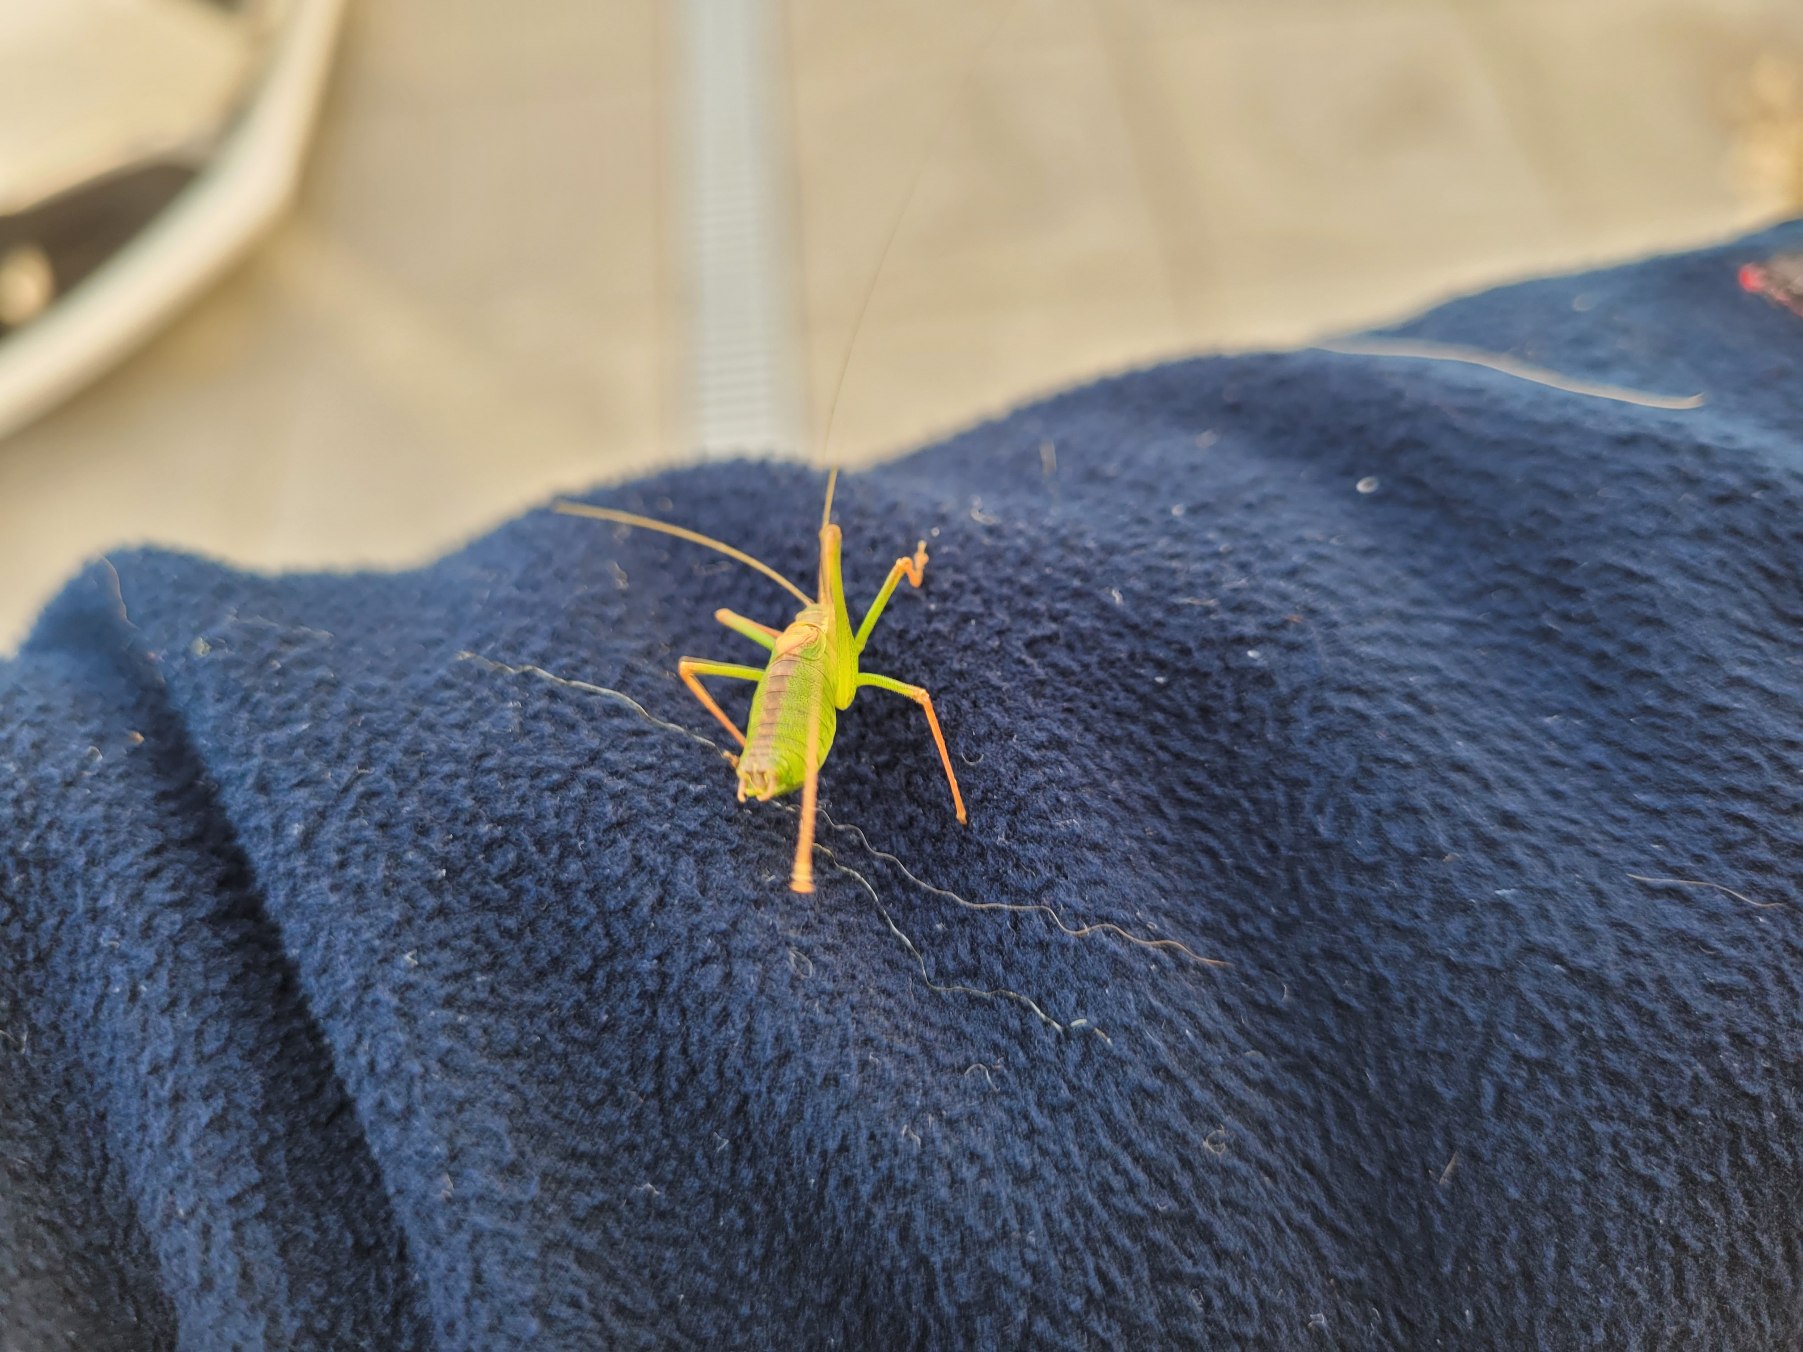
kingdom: Animalia
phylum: Arthropoda
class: Insecta
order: Orthoptera
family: Tettigoniidae
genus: Leptophyes
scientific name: Leptophyes punctatissima
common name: Krumknivgræshoppe
